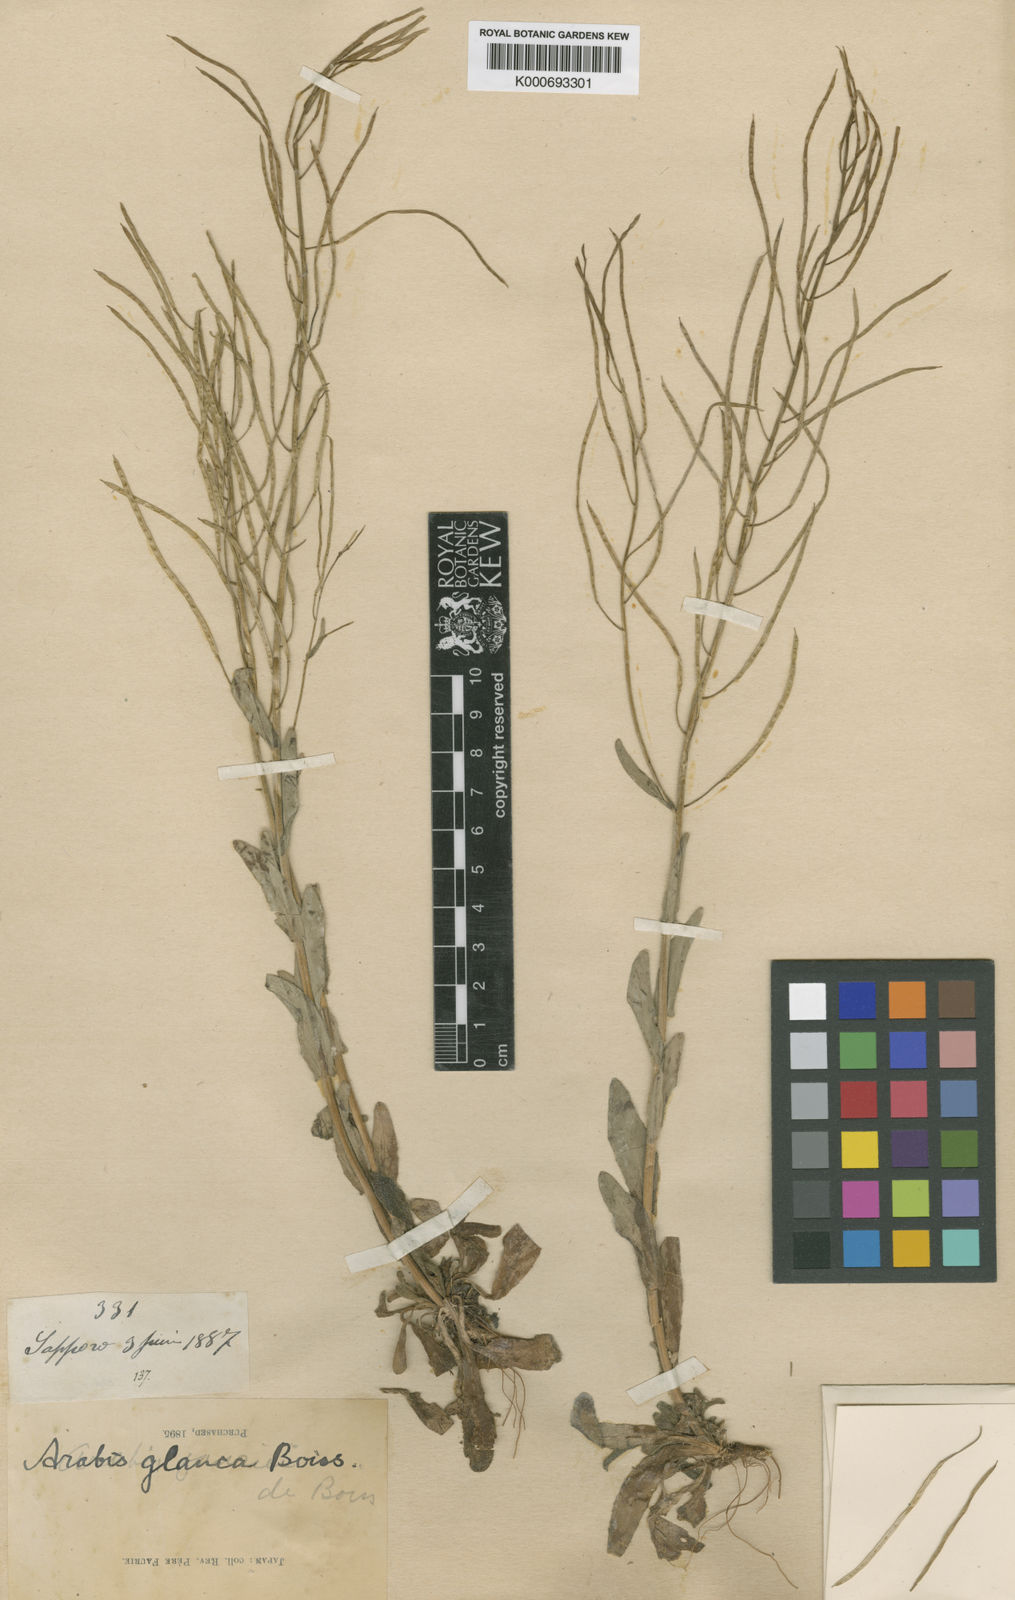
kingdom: Plantae
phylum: Tracheophyta
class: Magnoliopsida
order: Brassicales
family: Brassicaceae
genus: Arabis
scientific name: Arabis serrata
